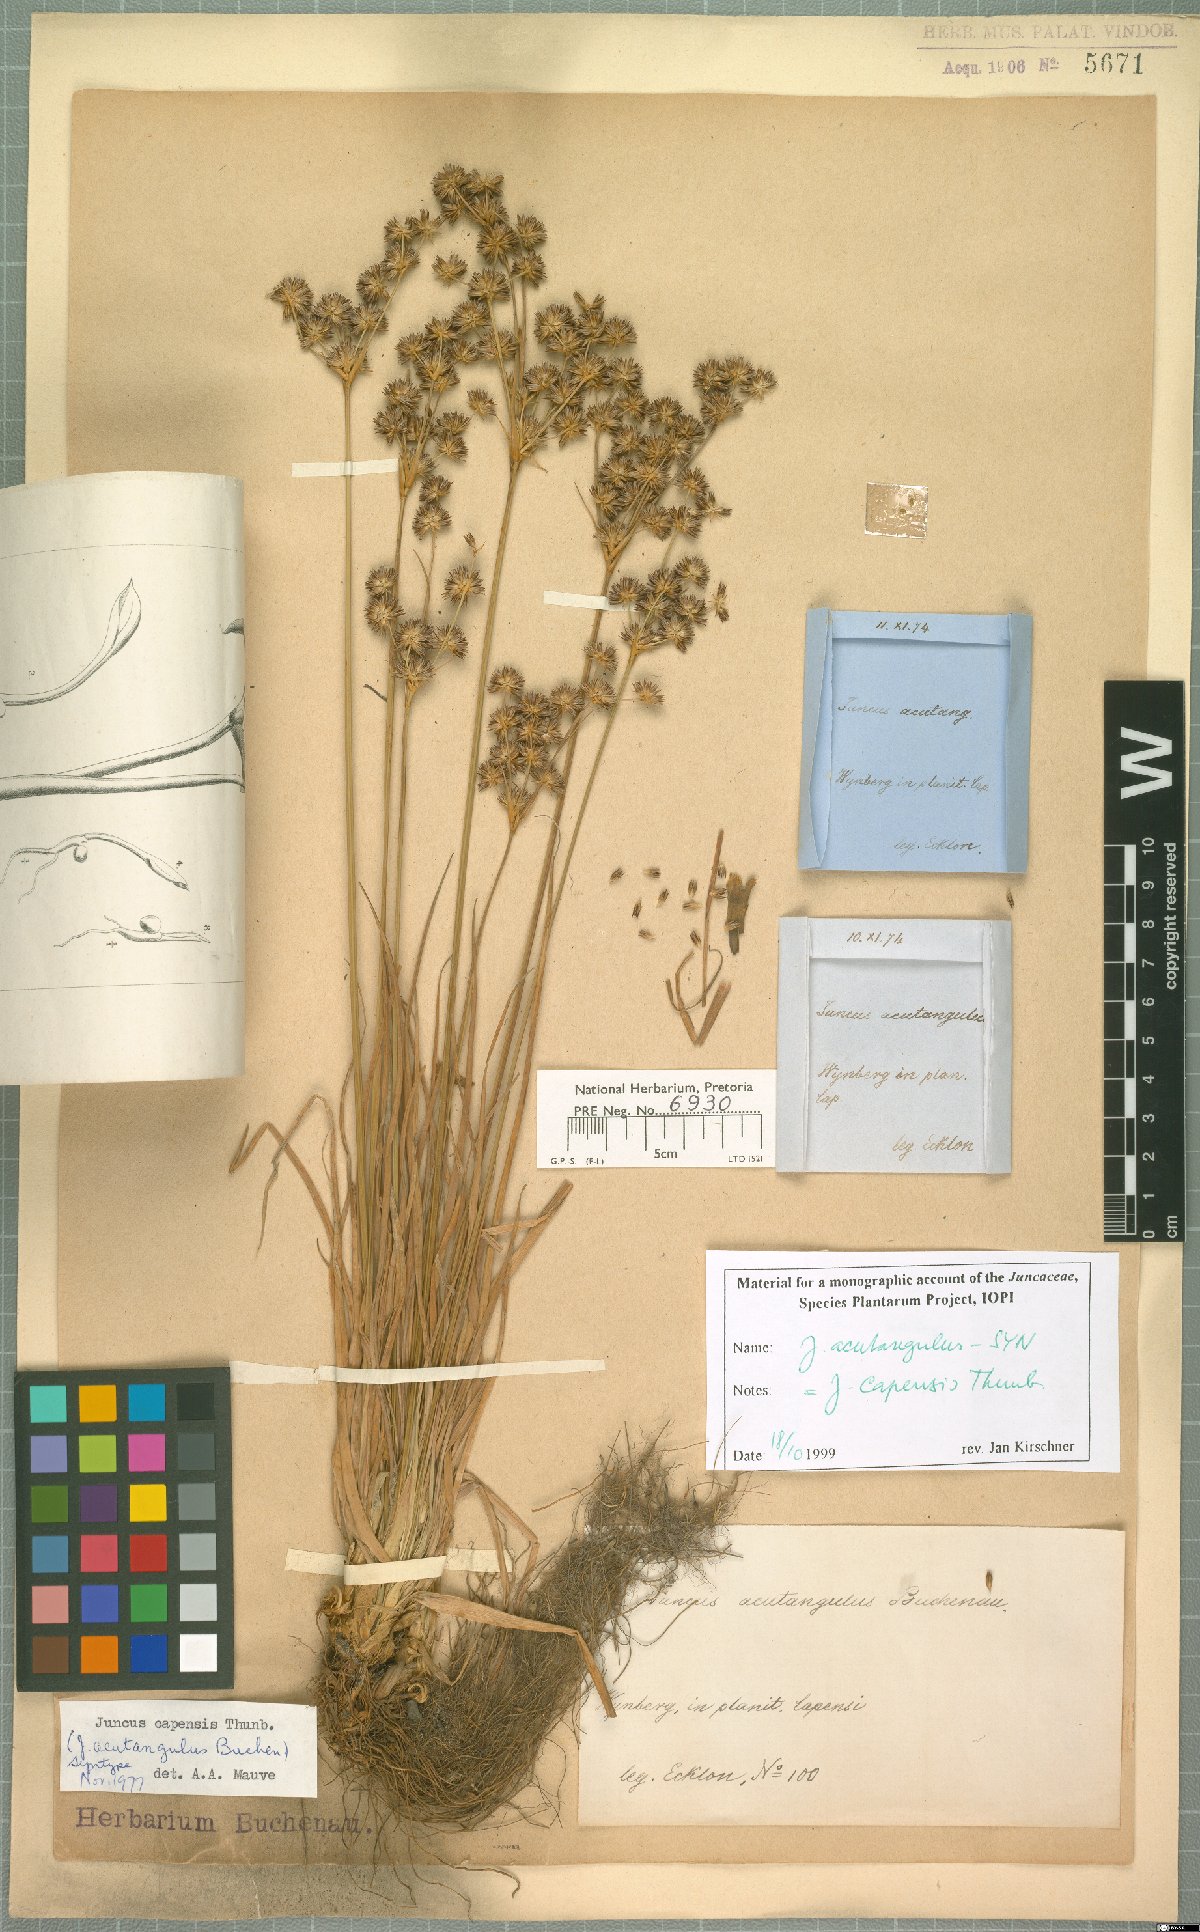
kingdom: Plantae
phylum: Tracheophyta
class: Liliopsida
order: Poales
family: Juncaceae
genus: Juncus
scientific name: Juncus capensis
